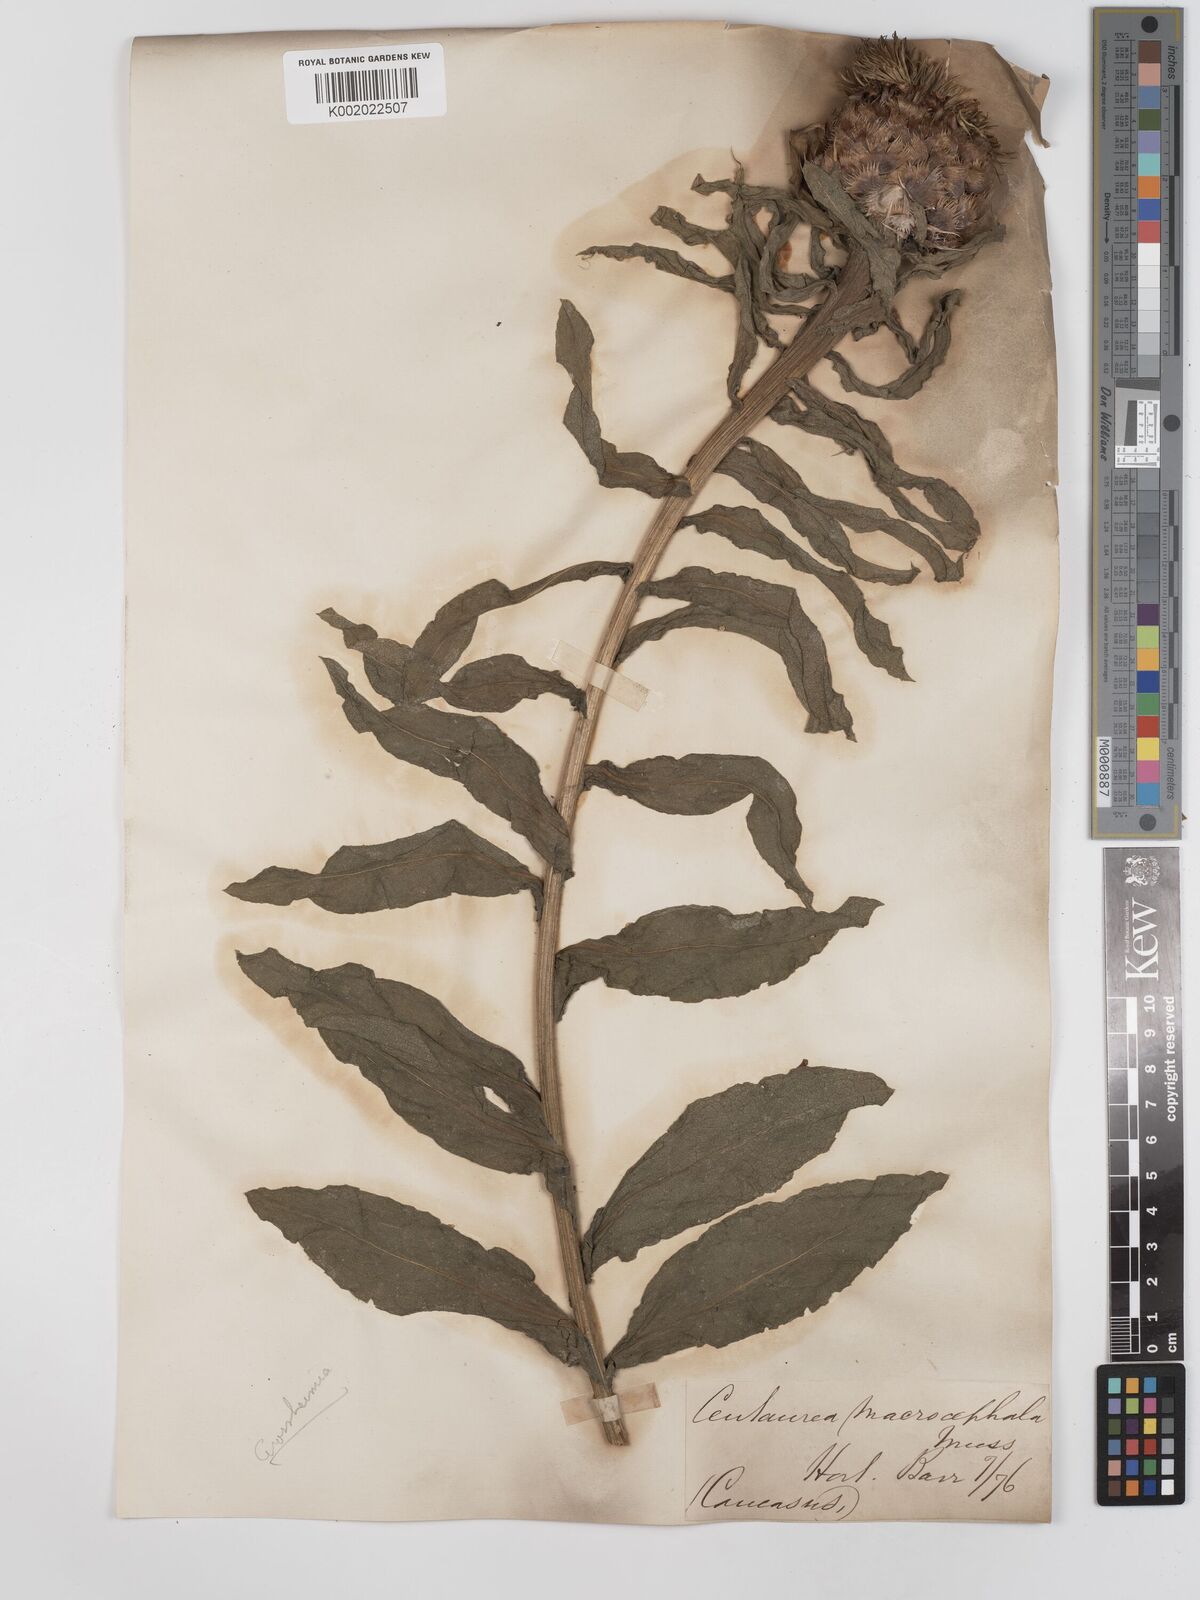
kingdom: Plantae
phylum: Tracheophyta
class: Magnoliopsida
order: Asterales
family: Asteraceae
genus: Centaurea
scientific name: Centaurea macrocephala
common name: Big-head knapweed
